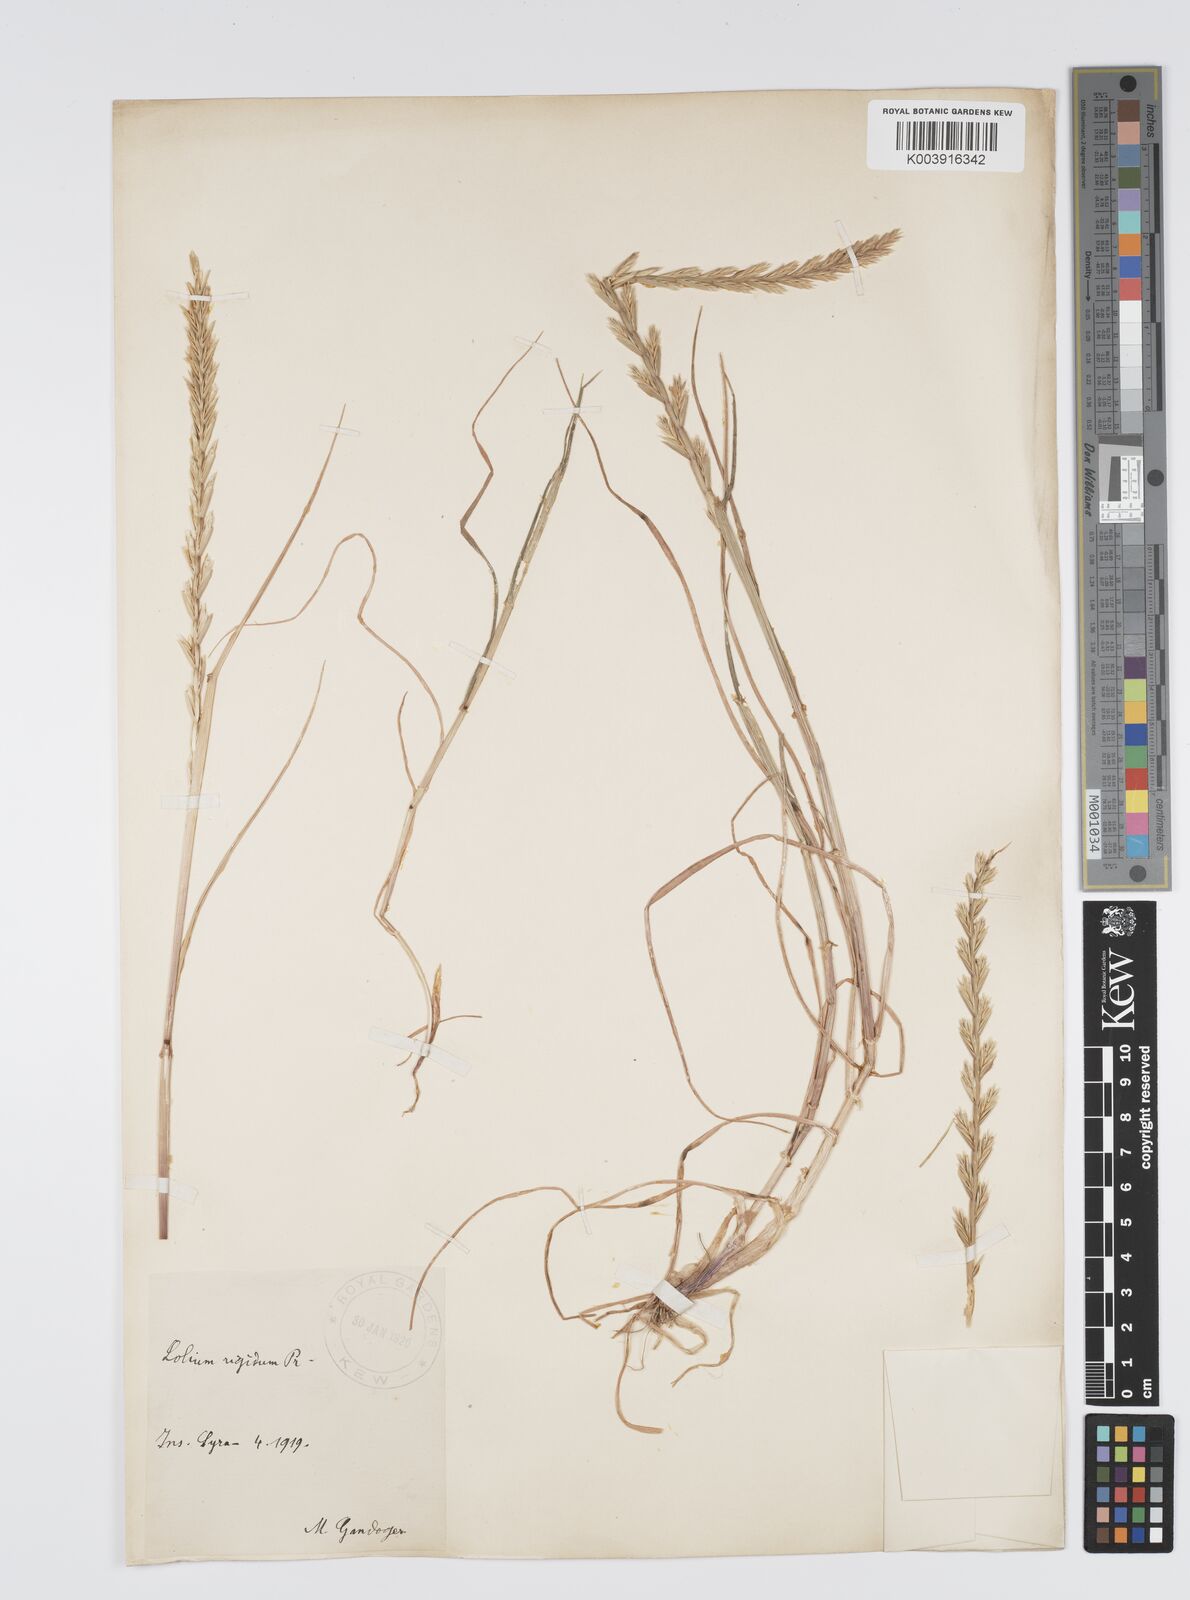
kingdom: Plantae
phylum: Tracheophyta
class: Liliopsida
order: Poales
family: Poaceae
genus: Lolium
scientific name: Lolium rigidum
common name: Wimmera ryegrass
